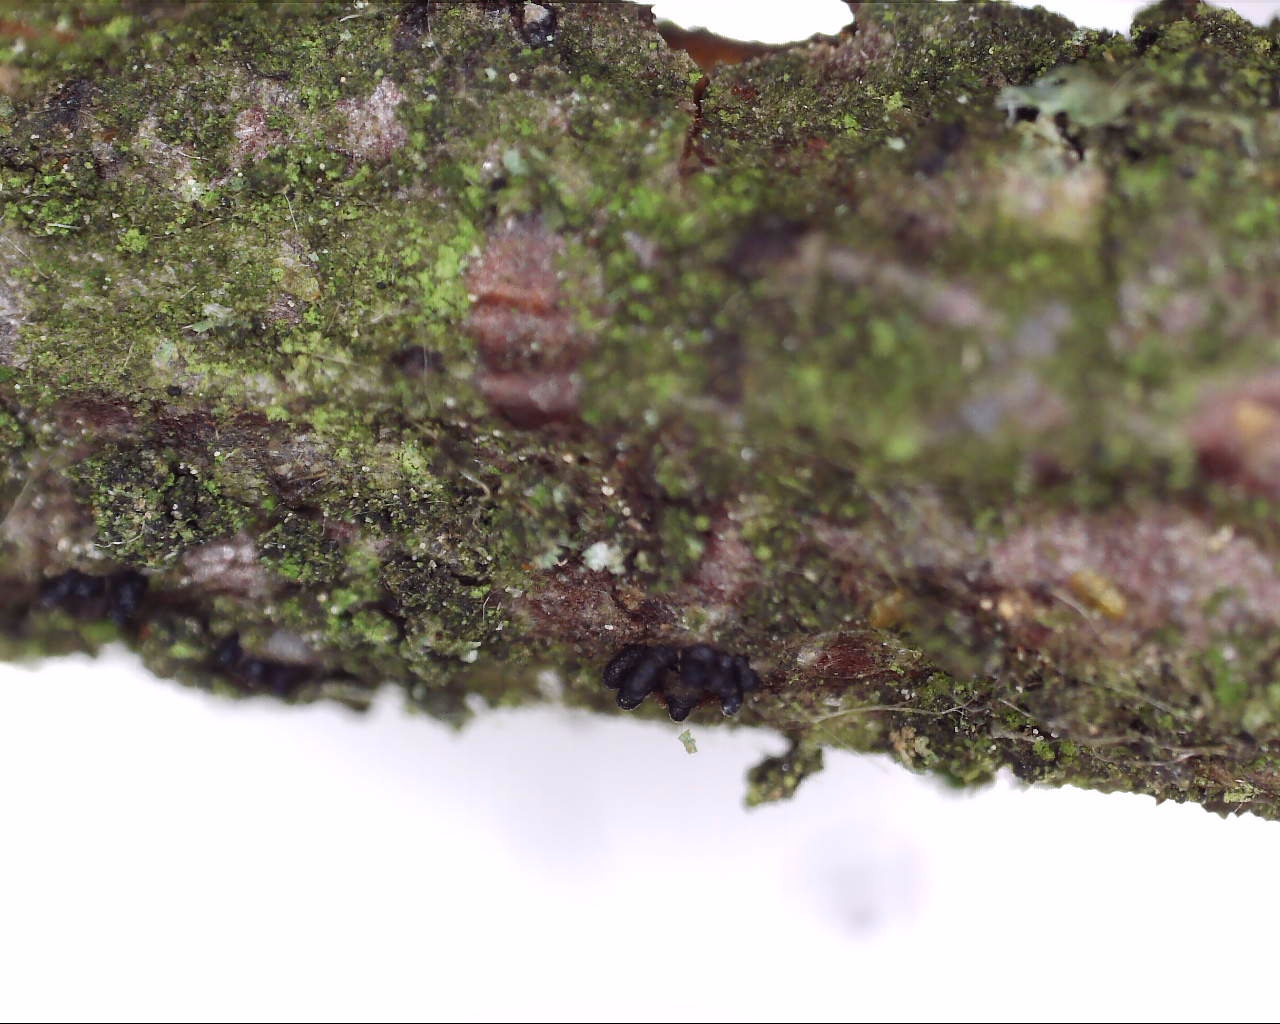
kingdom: Fungi
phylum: Ascomycota
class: Sordariomycetes
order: Diaporthales
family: Valsaceae
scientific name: Valsaceae
